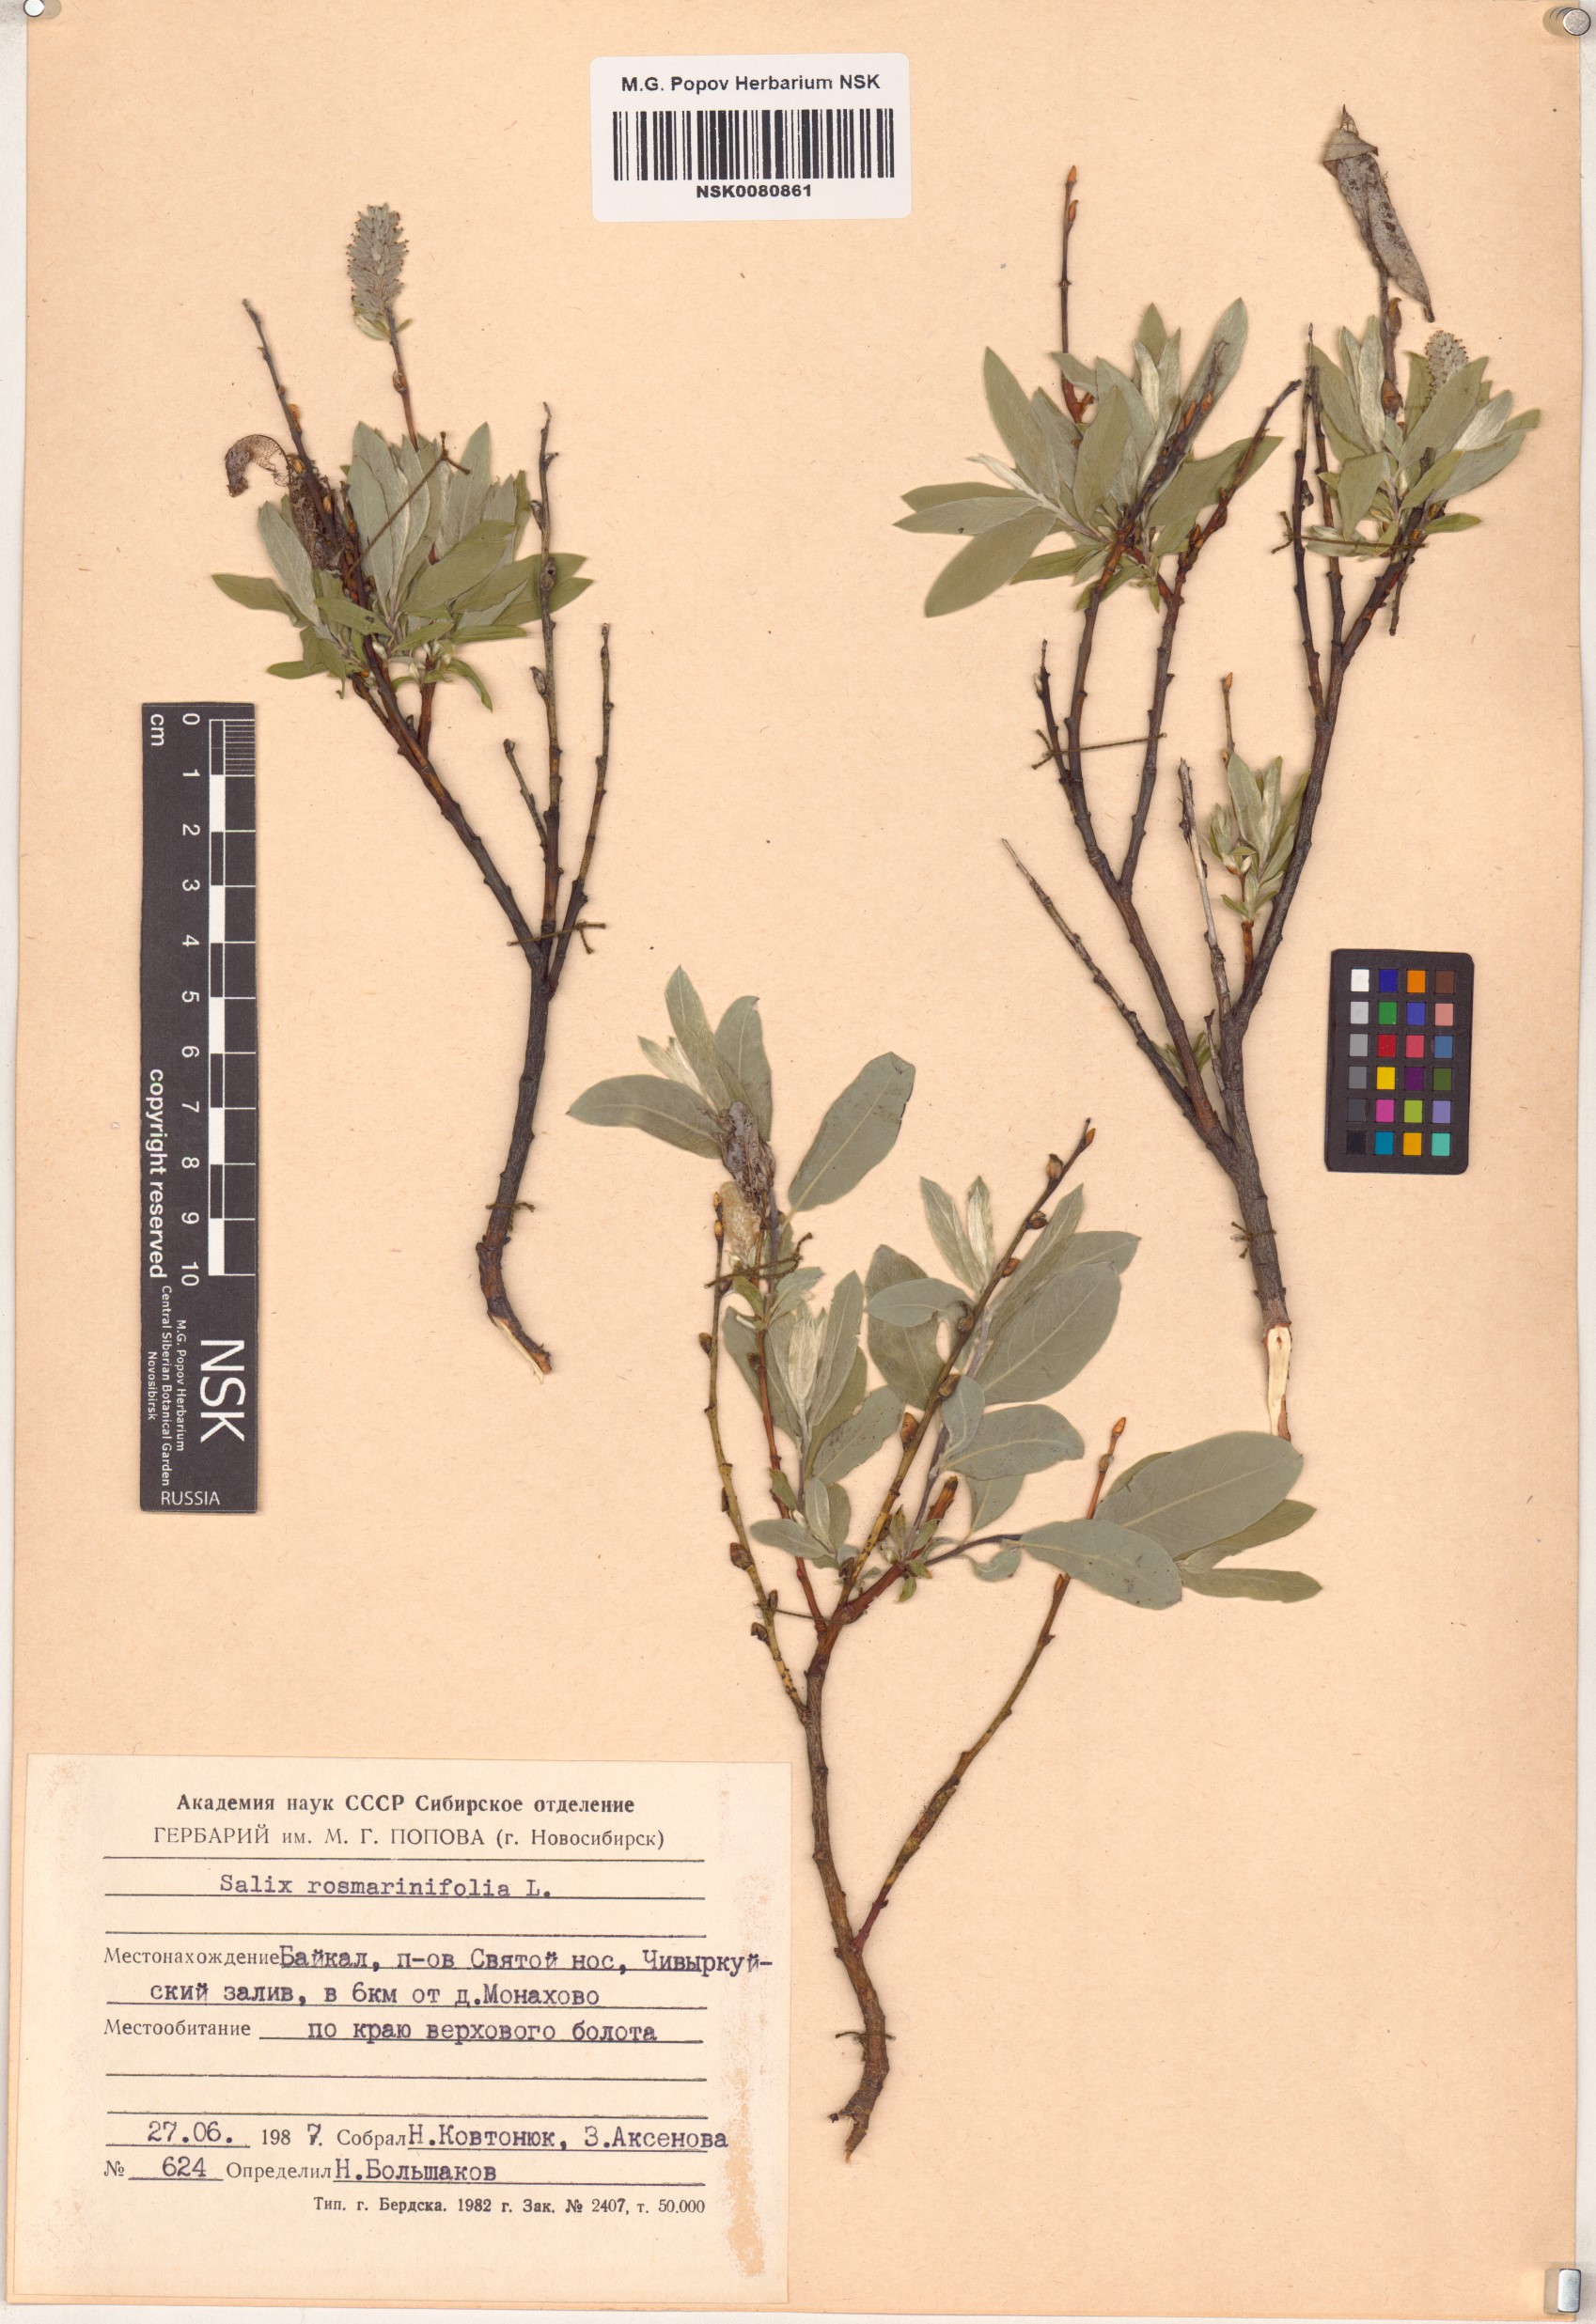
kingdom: Plantae
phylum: Tracheophyta
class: Magnoliopsida
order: Malpighiales
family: Salicaceae
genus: Salix
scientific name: Salix rosmarinifolia
